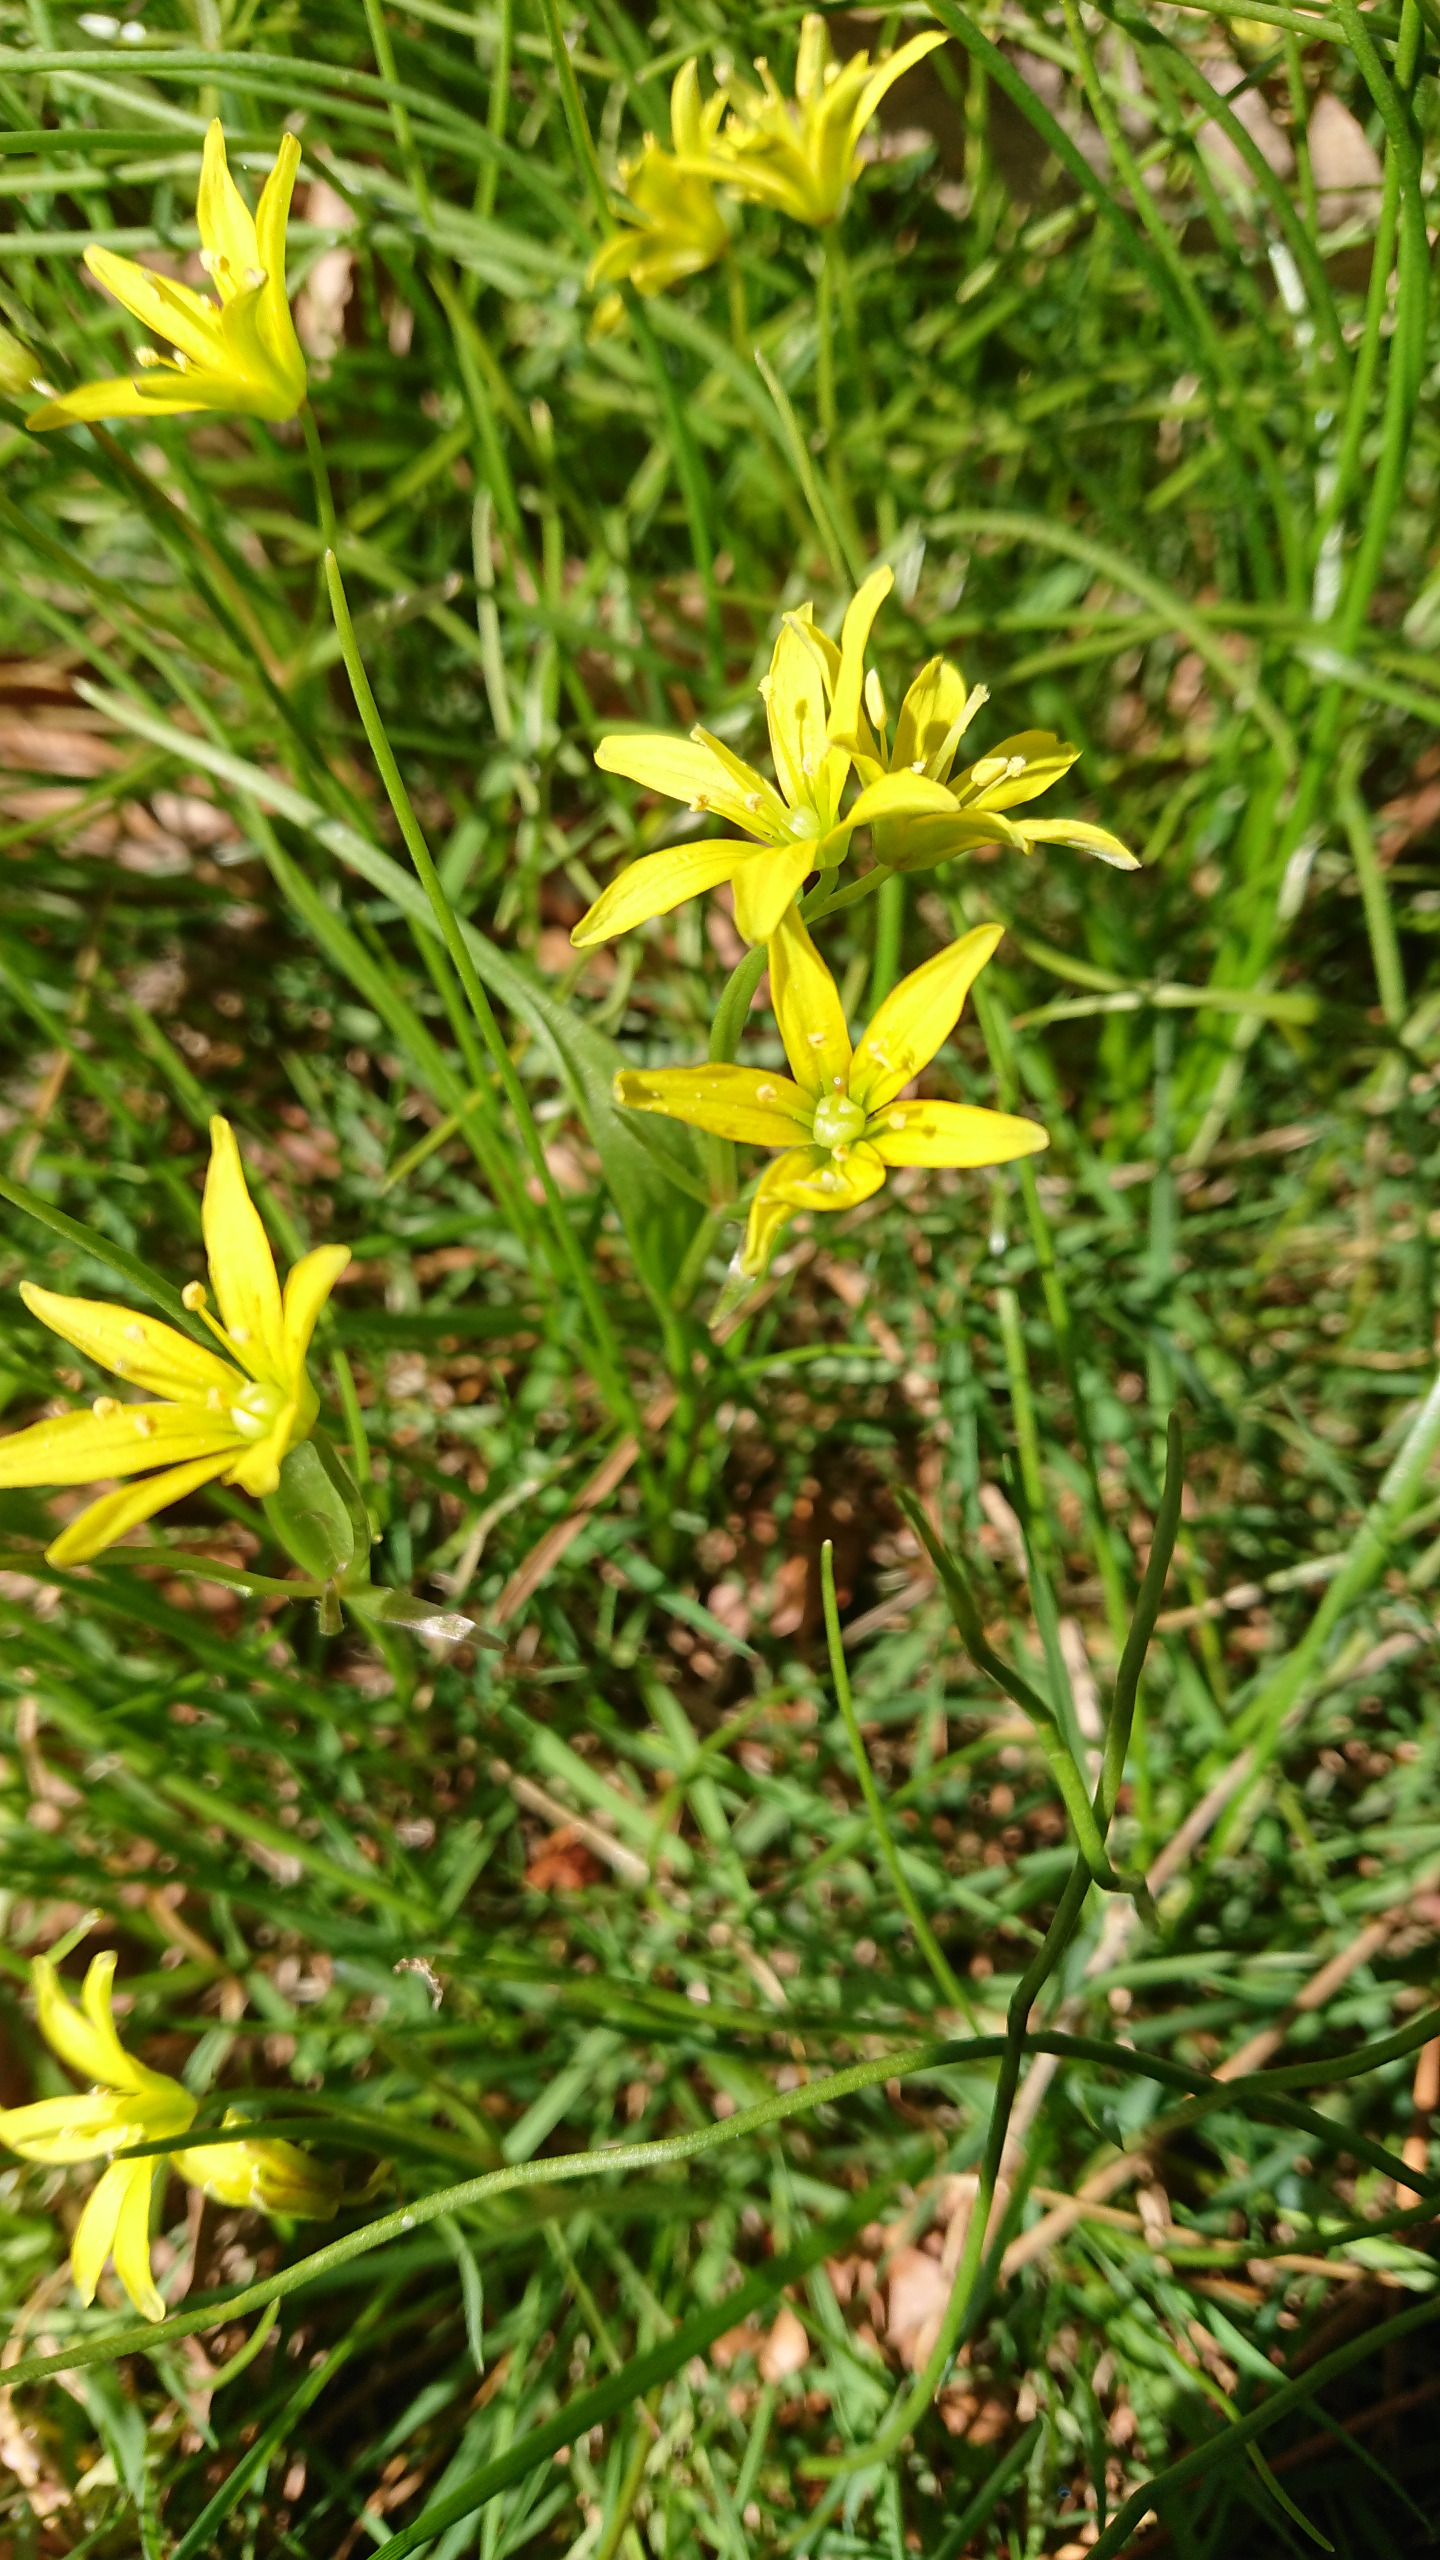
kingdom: Plantae
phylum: Tracheophyta
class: Liliopsida
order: Liliales
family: Liliaceae
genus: Gagea
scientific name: Gagea spathacea
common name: Hylster-guldstjerne
